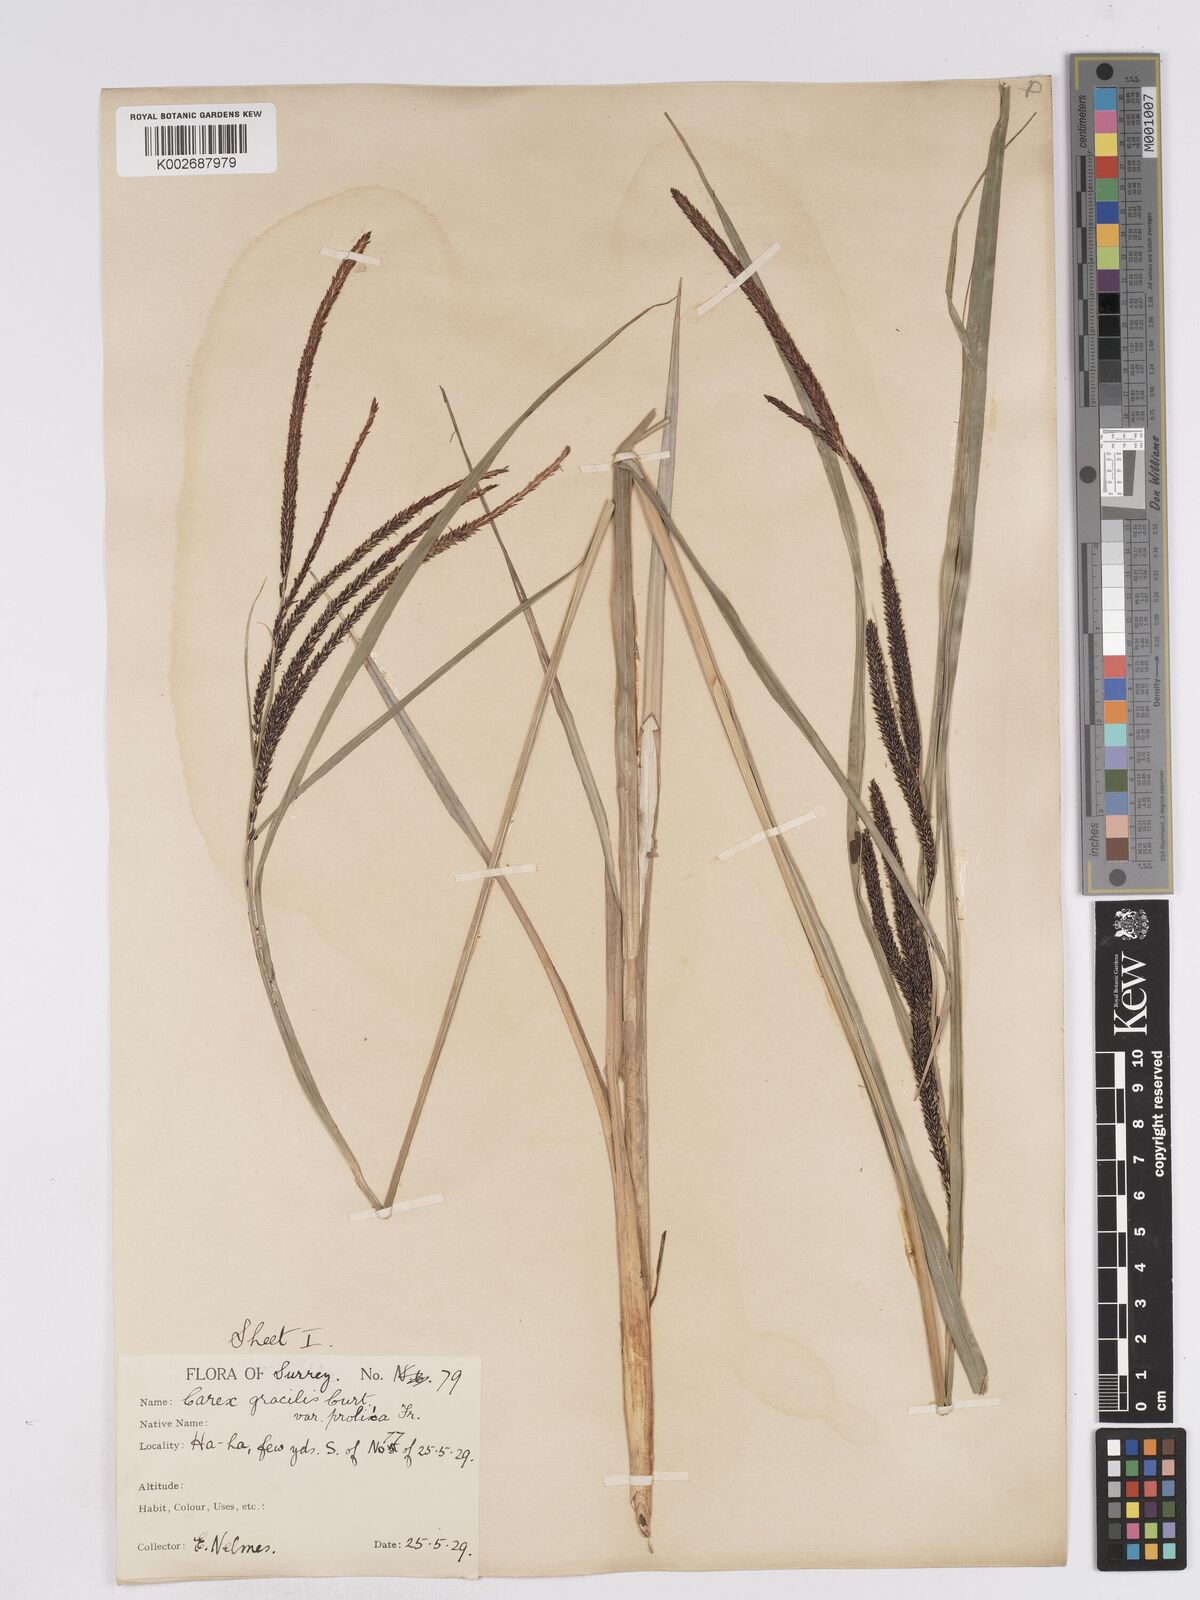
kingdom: Plantae
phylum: Tracheophyta
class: Liliopsida
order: Poales
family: Cyperaceae
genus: Carex
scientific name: Carex acuta
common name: Slender tufted-sedge
